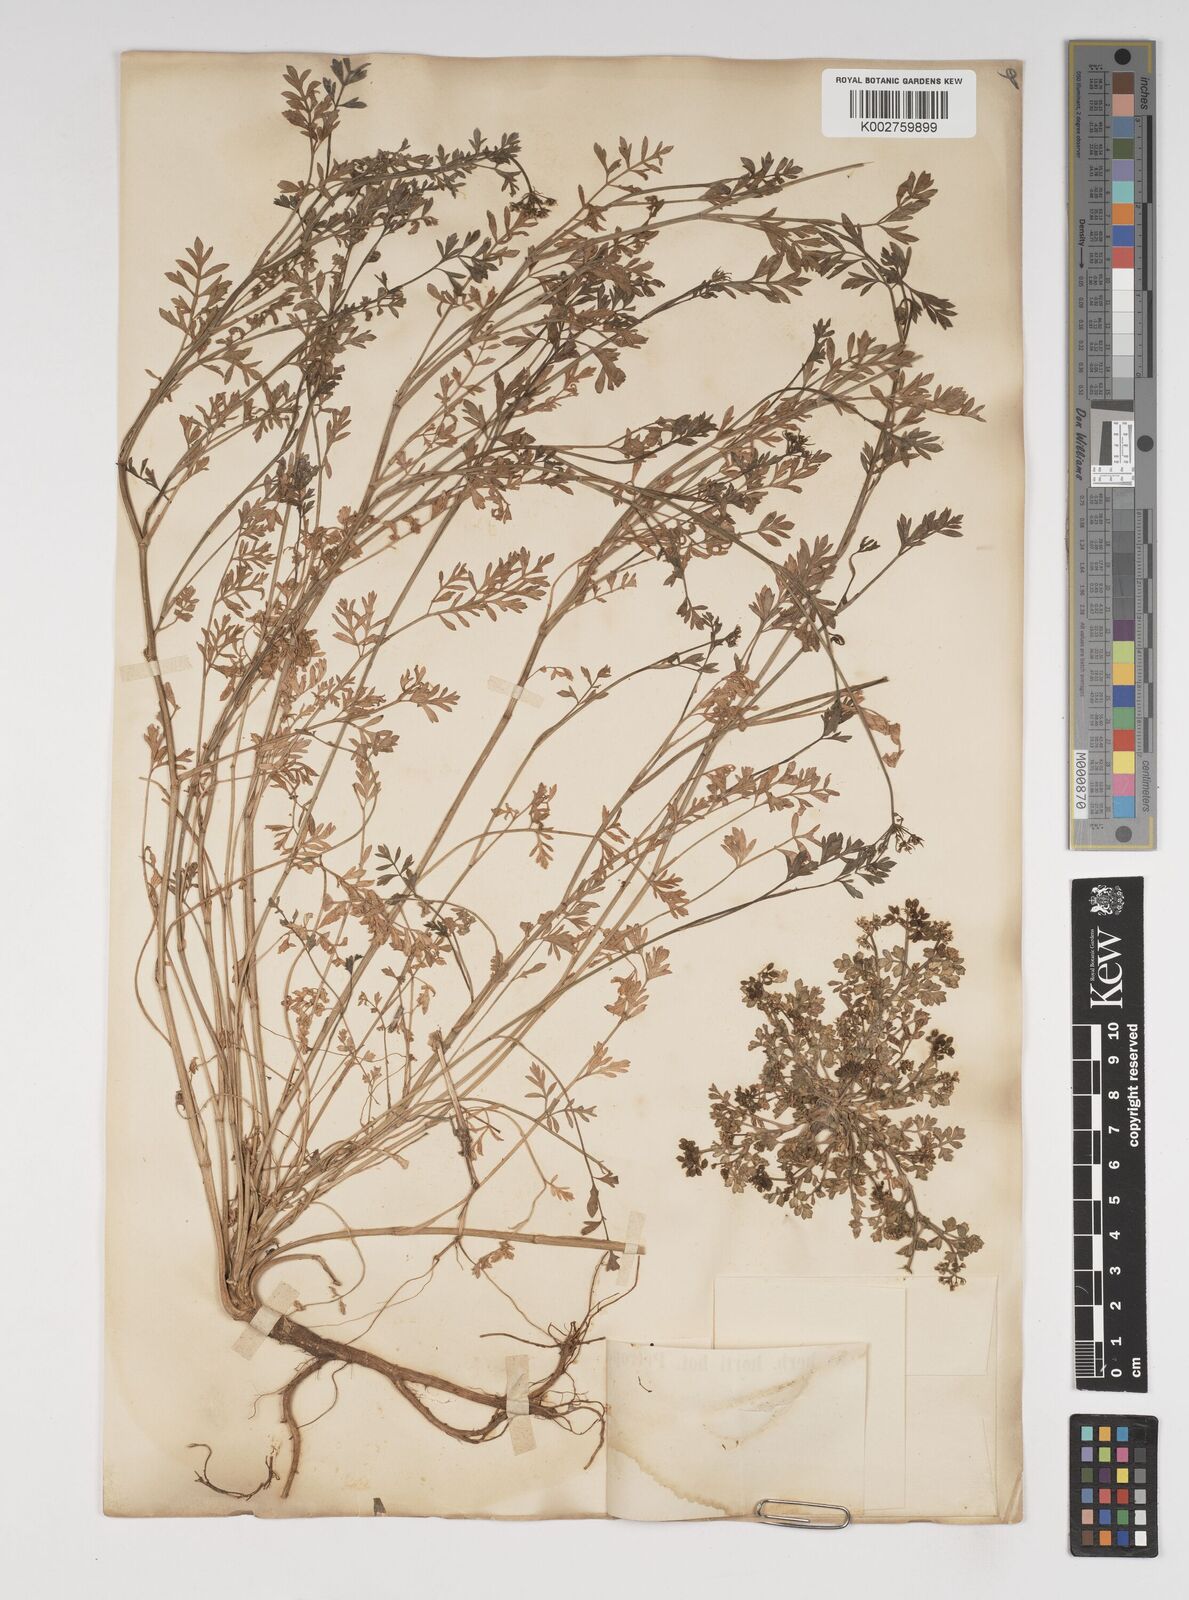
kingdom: Plantae
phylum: Tracheophyta
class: Magnoliopsida
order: Apiales
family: Apiaceae
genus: Cnidium
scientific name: Cnidium japonicum
